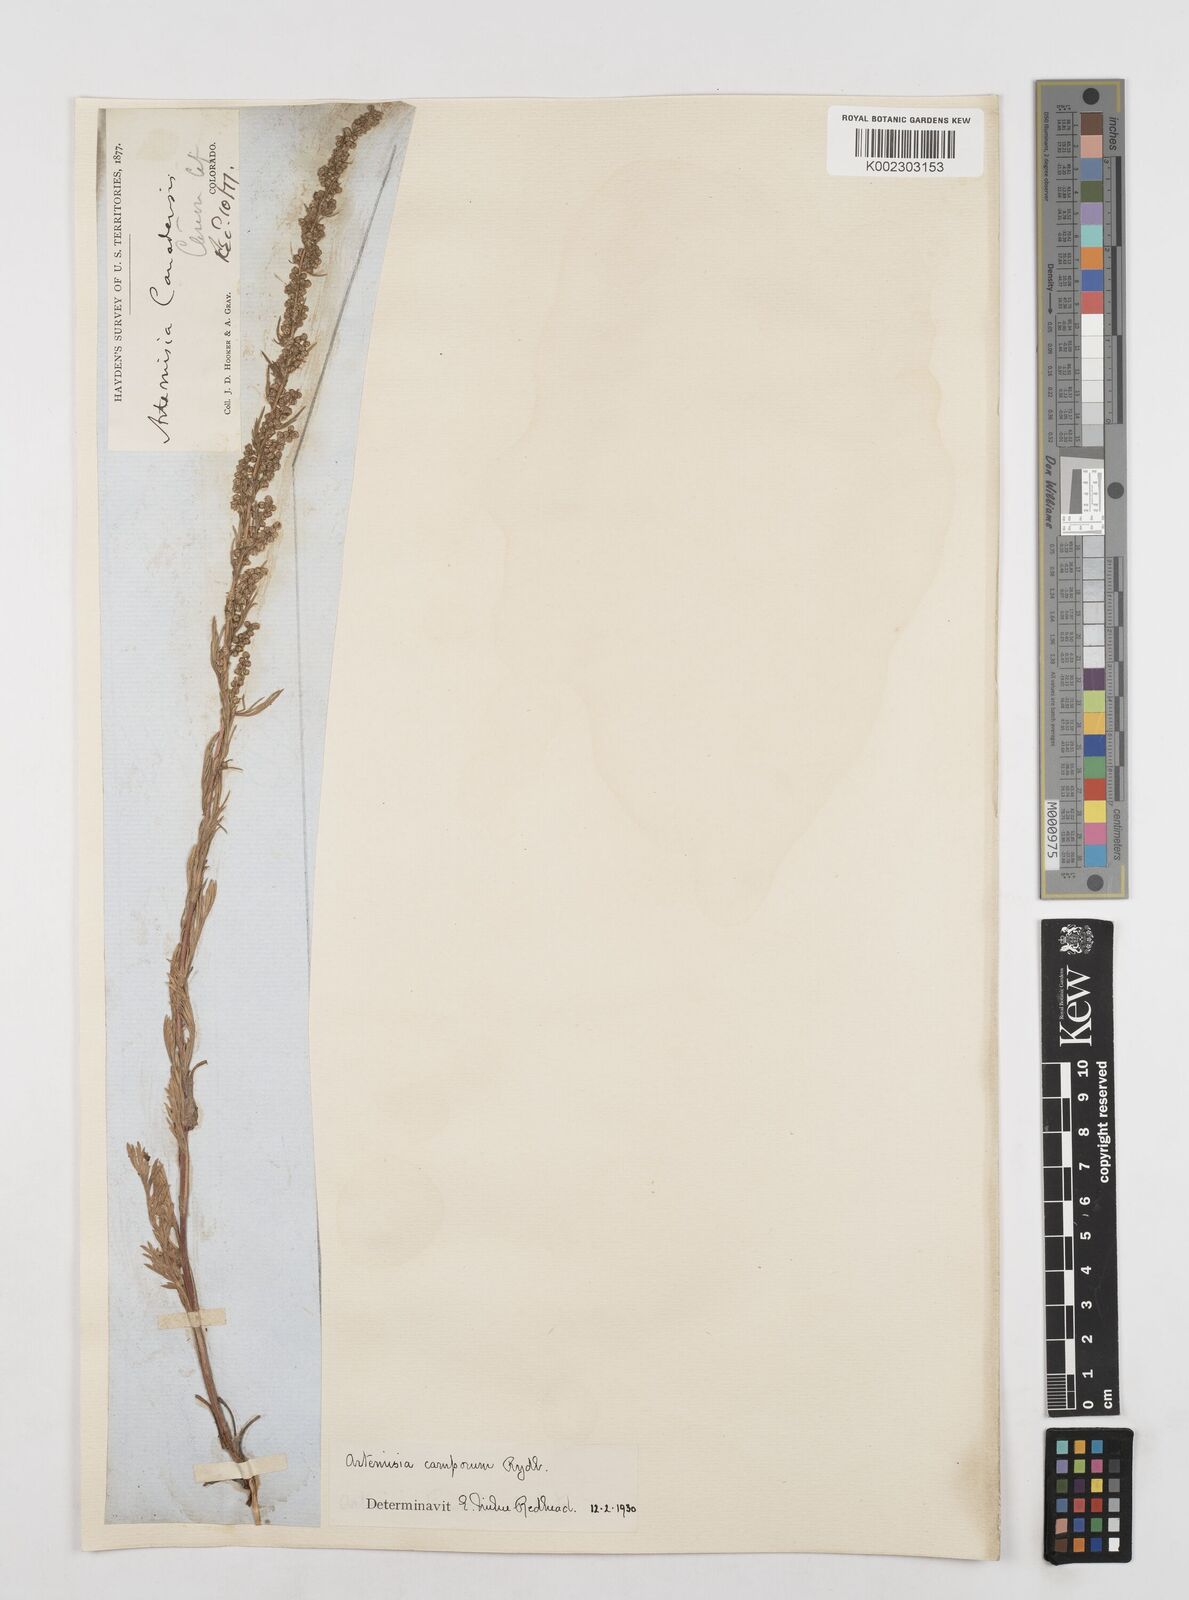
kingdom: Plantae
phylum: Tracheophyta
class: Magnoliopsida
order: Asterales
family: Asteraceae
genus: Artemisia
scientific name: Artemisia campestris
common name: Field wormwood
